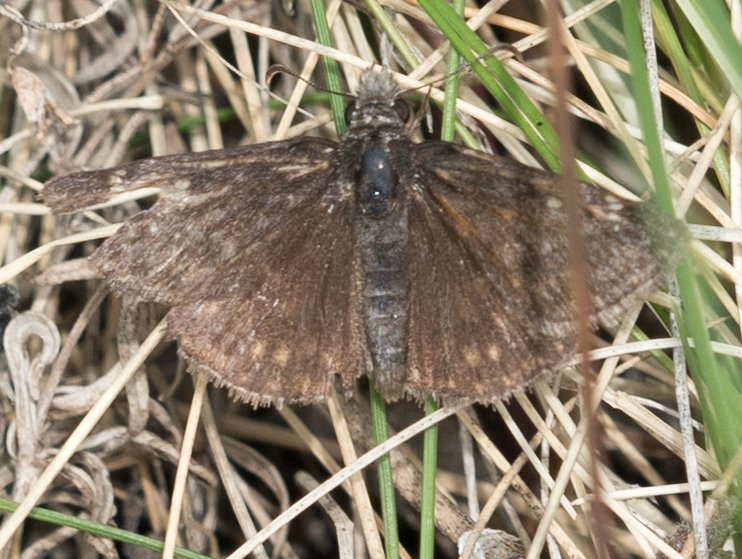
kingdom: Animalia
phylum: Arthropoda
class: Insecta
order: Lepidoptera
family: Hesperiidae
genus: Erynnis
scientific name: Erynnis afranius
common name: Afranius Duskywing
